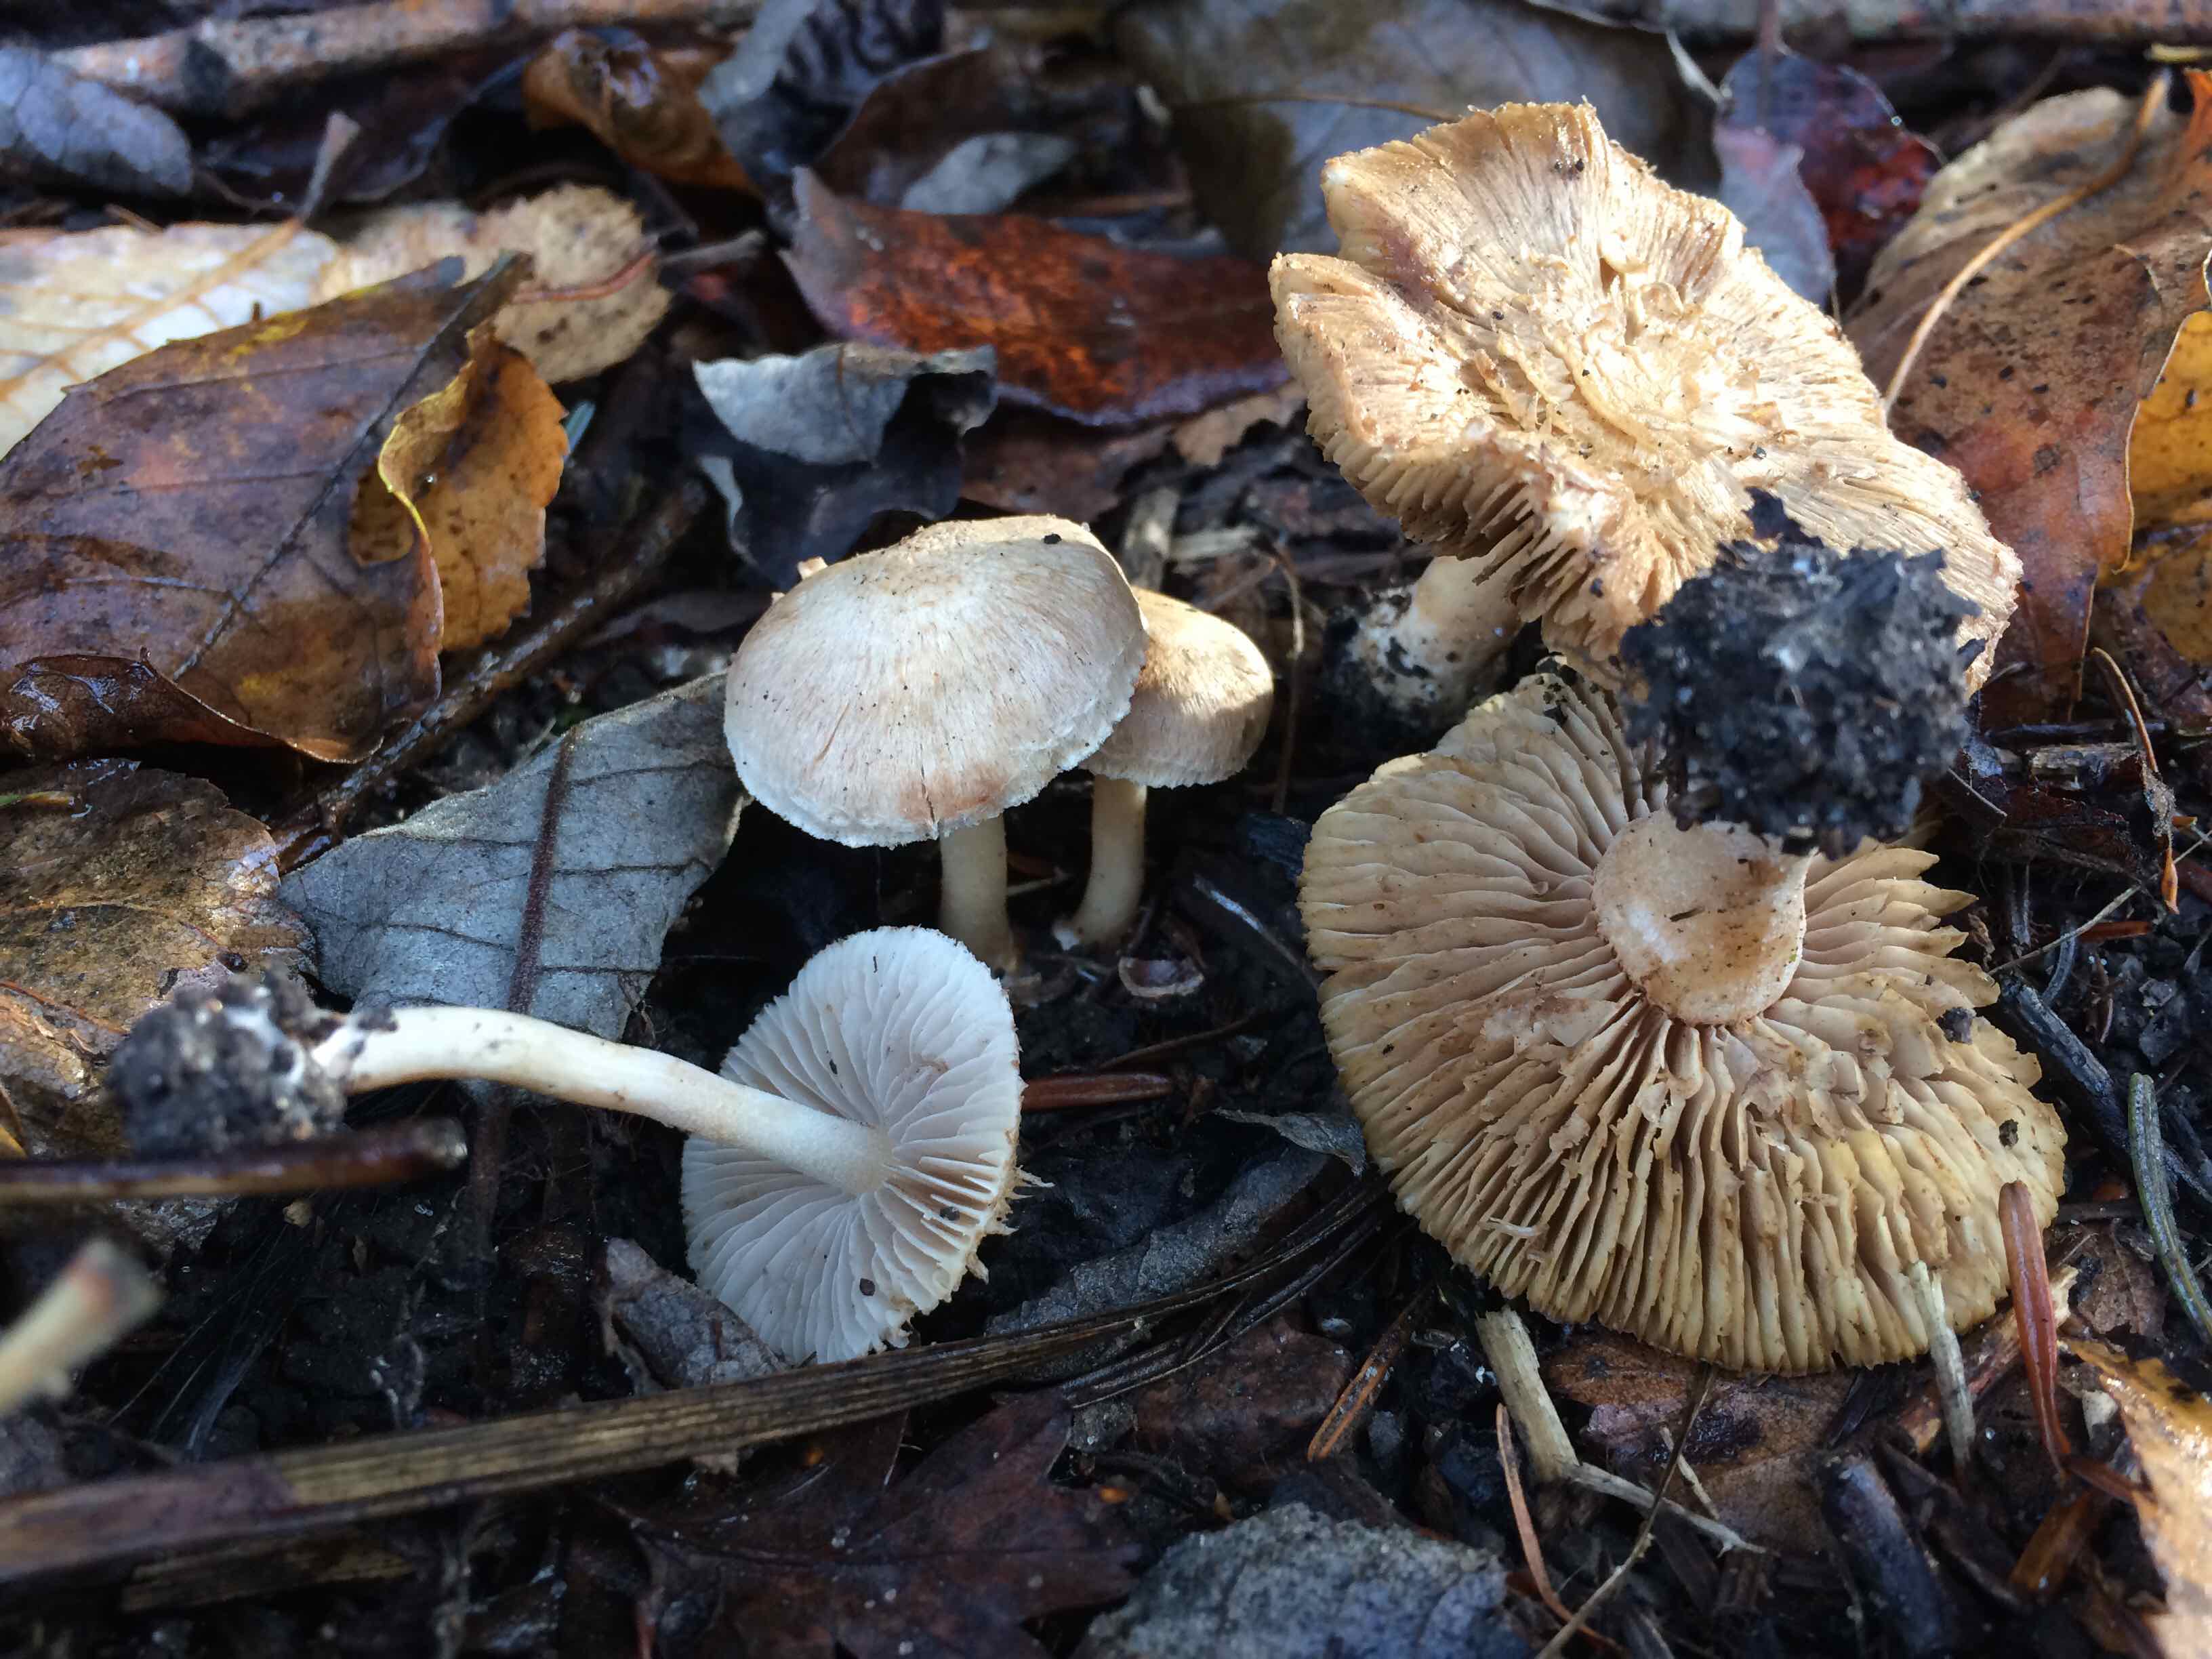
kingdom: Fungi
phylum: Basidiomycota
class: Agaricomycetes
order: Agaricales
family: Inocybaceae
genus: Inocybe
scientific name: Inocybe
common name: trævlhat
